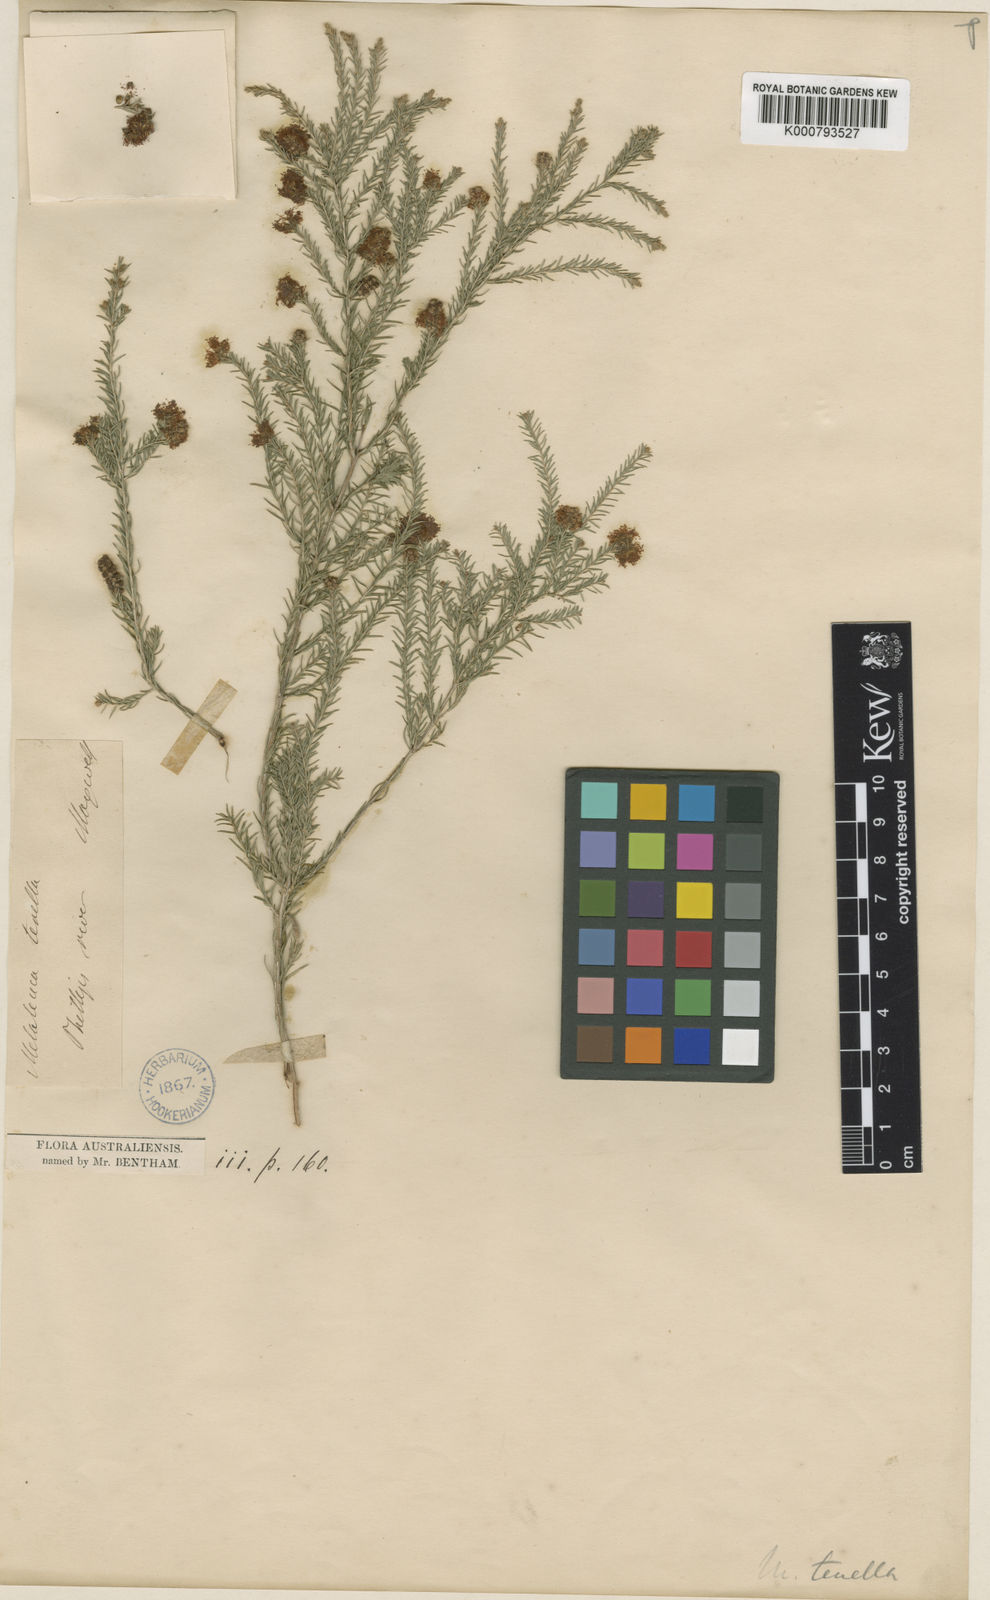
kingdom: Plantae
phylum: Tracheophyta
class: Magnoliopsida
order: Myrtales
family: Myrtaceae
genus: Melaleuca
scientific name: Melaleuca incana
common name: Grey honey myrtle
